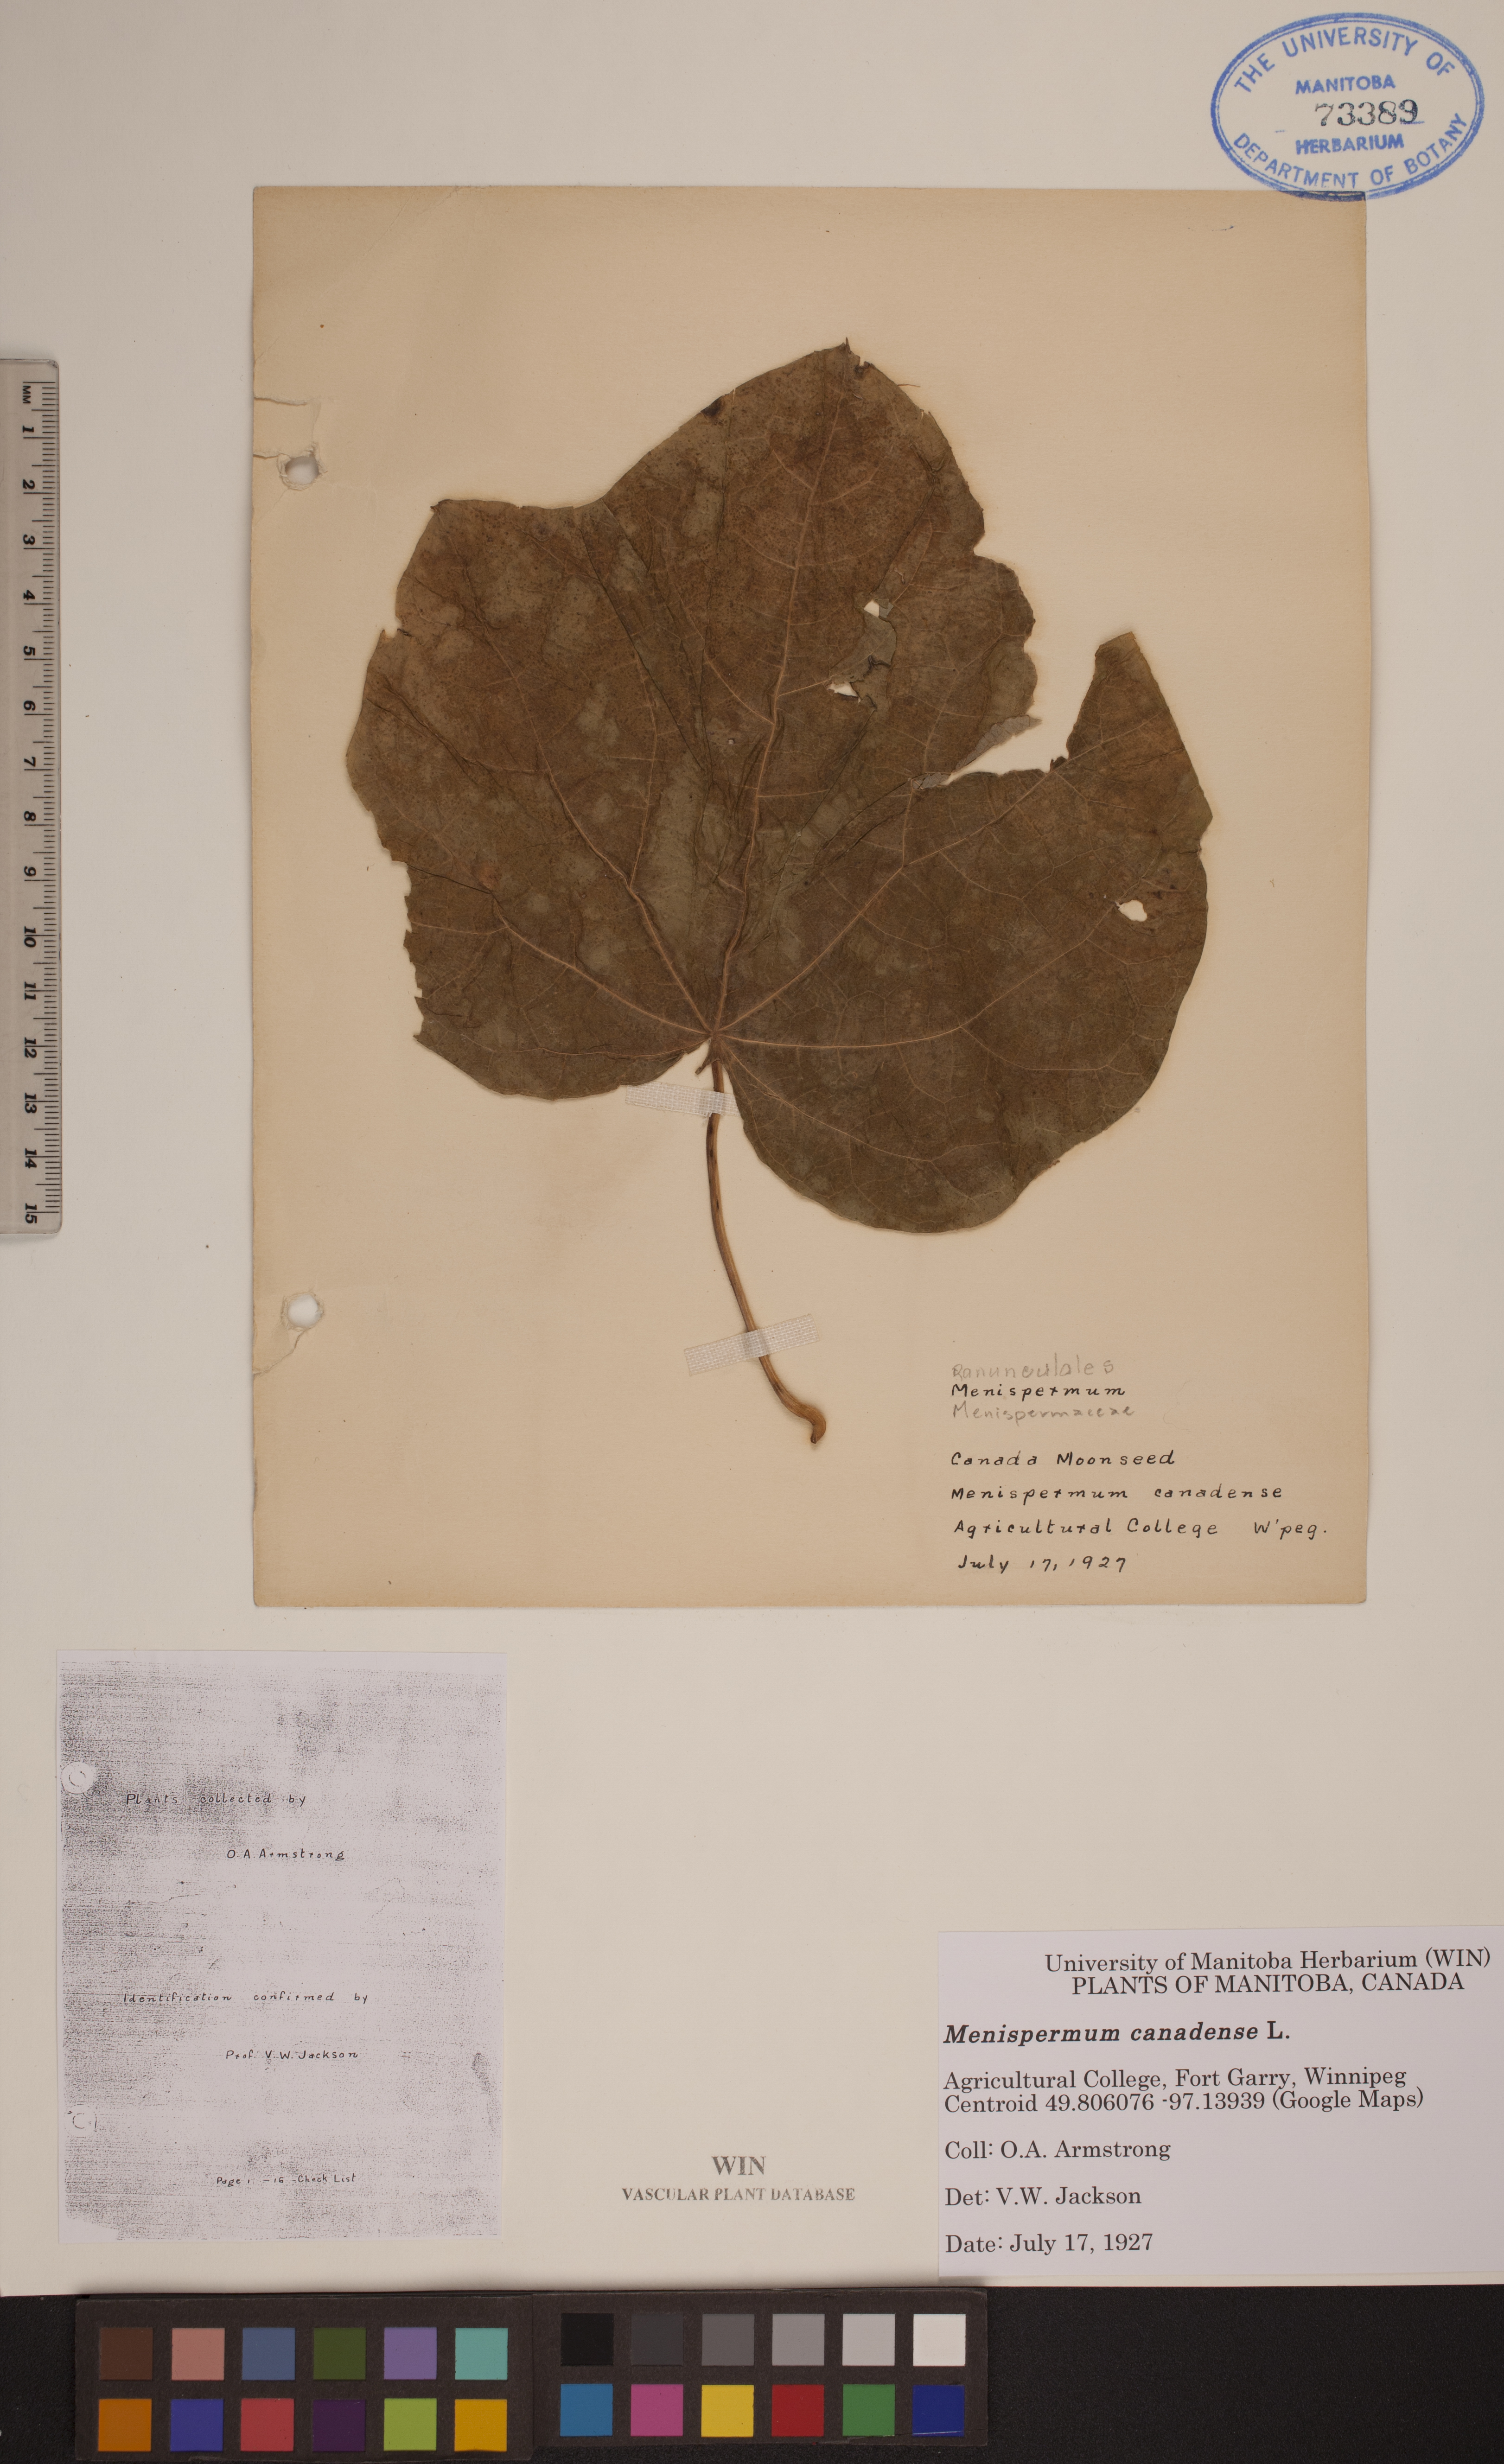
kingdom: Plantae
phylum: Tracheophyta
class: Magnoliopsida
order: Ranunculales
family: Menispermaceae
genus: Menispermum
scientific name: Menispermum canadense
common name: Moonseed
